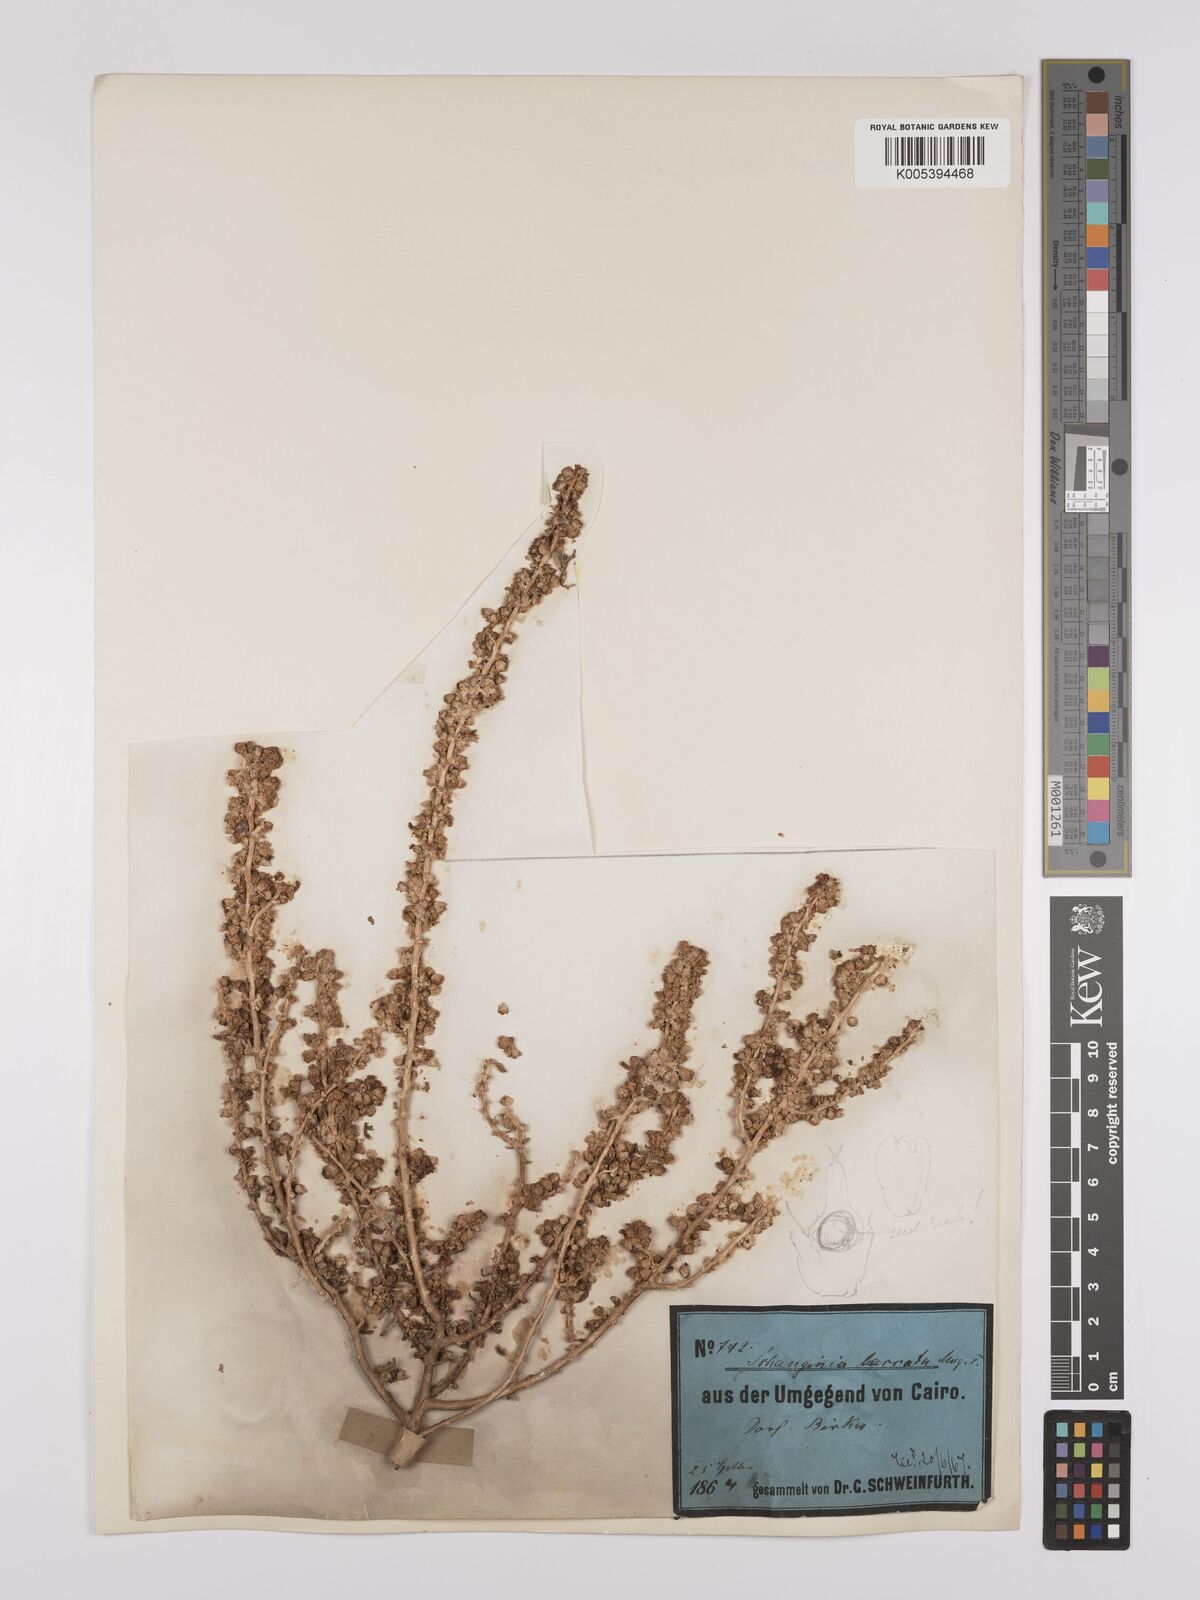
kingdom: Plantae
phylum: Tracheophyta
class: Magnoliopsida
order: Caryophyllales
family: Amaranthaceae
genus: Suaeda
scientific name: Suaeda aegyptiaca
